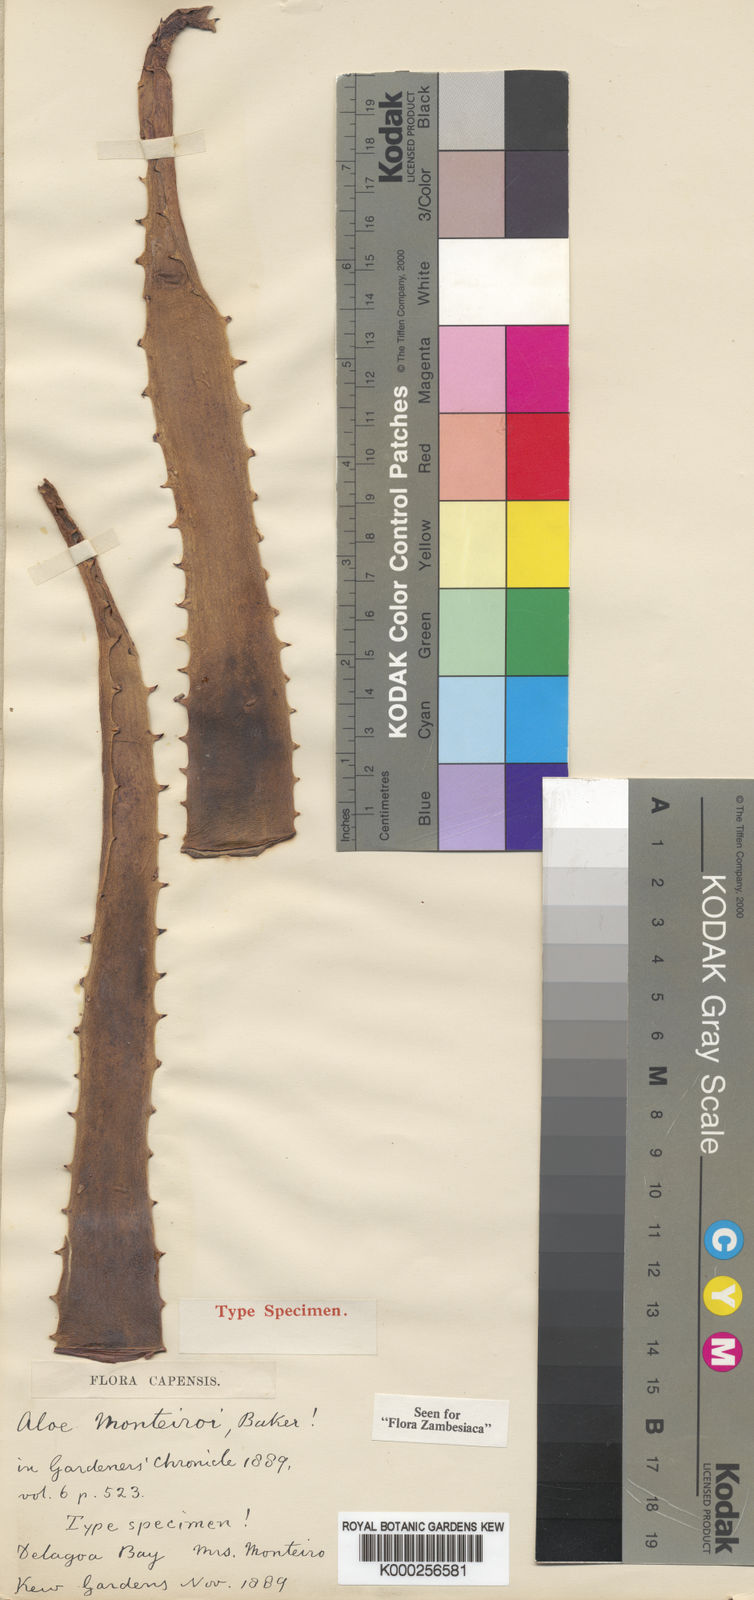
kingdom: Plantae
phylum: Tracheophyta
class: Liliopsida
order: Asparagales
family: Asphodelaceae
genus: Aloe
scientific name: Aloe parvibracteata
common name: Lowveld spotted aloe
